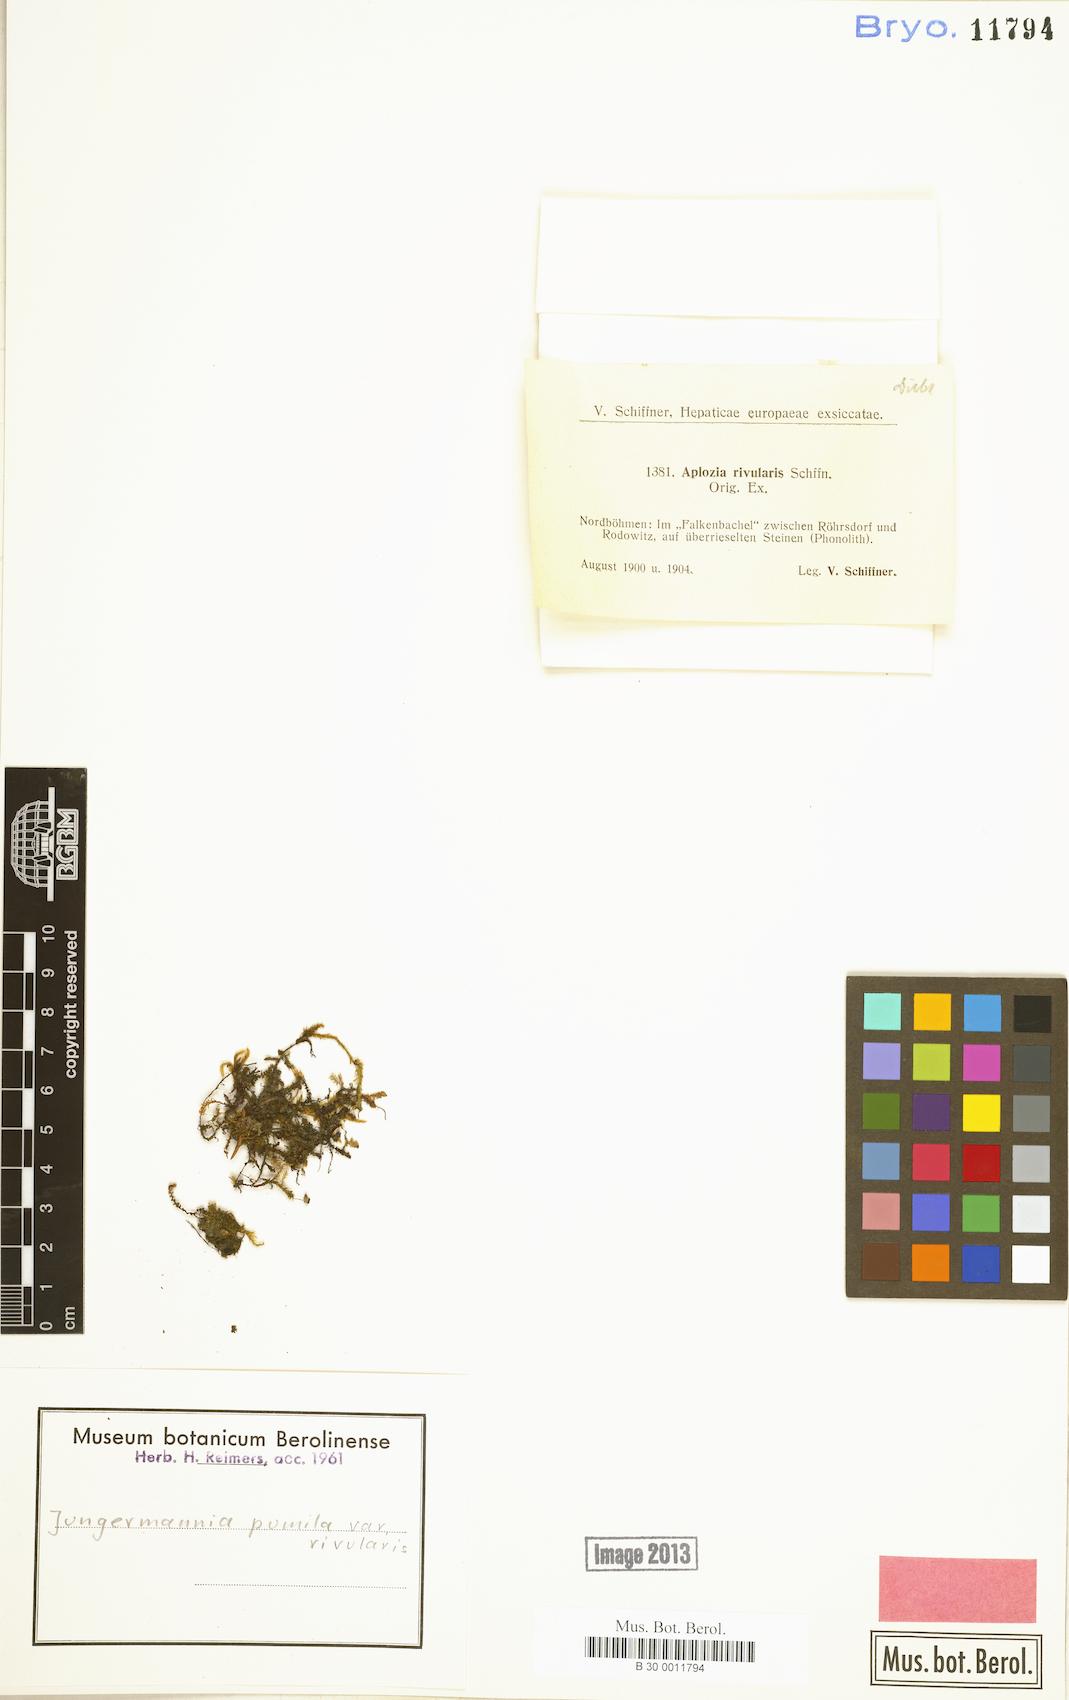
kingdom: Plantae
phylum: Marchantiophyta
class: Jungermanniopsida
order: Jungermanniales
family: Jungermanniaceae
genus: Jungermannia
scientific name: Jungermannia pumila
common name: Dwarf flapwort
